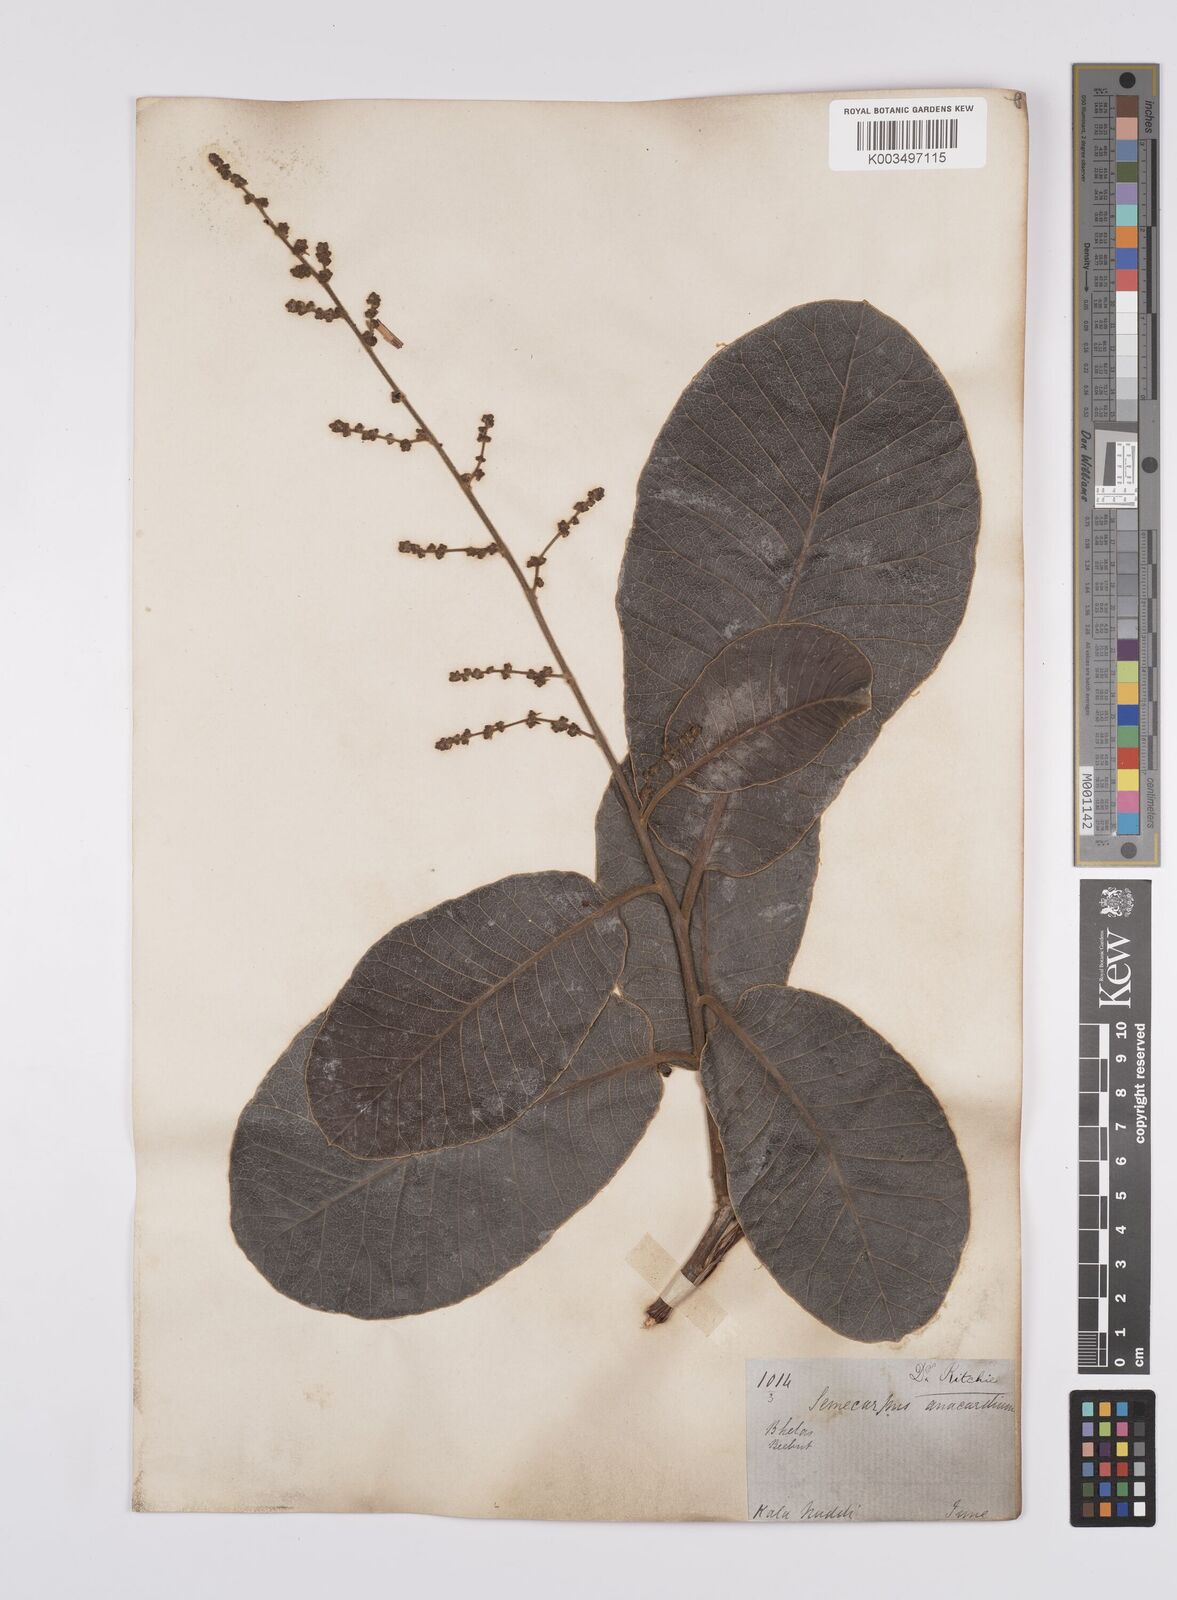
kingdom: Plantae
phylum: Tracheophyta
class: Magnoliopsida
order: Sapindales
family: Anacardiaceae
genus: Semecarpus
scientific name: Semecarpus anacardium
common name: Marking nut-tree
